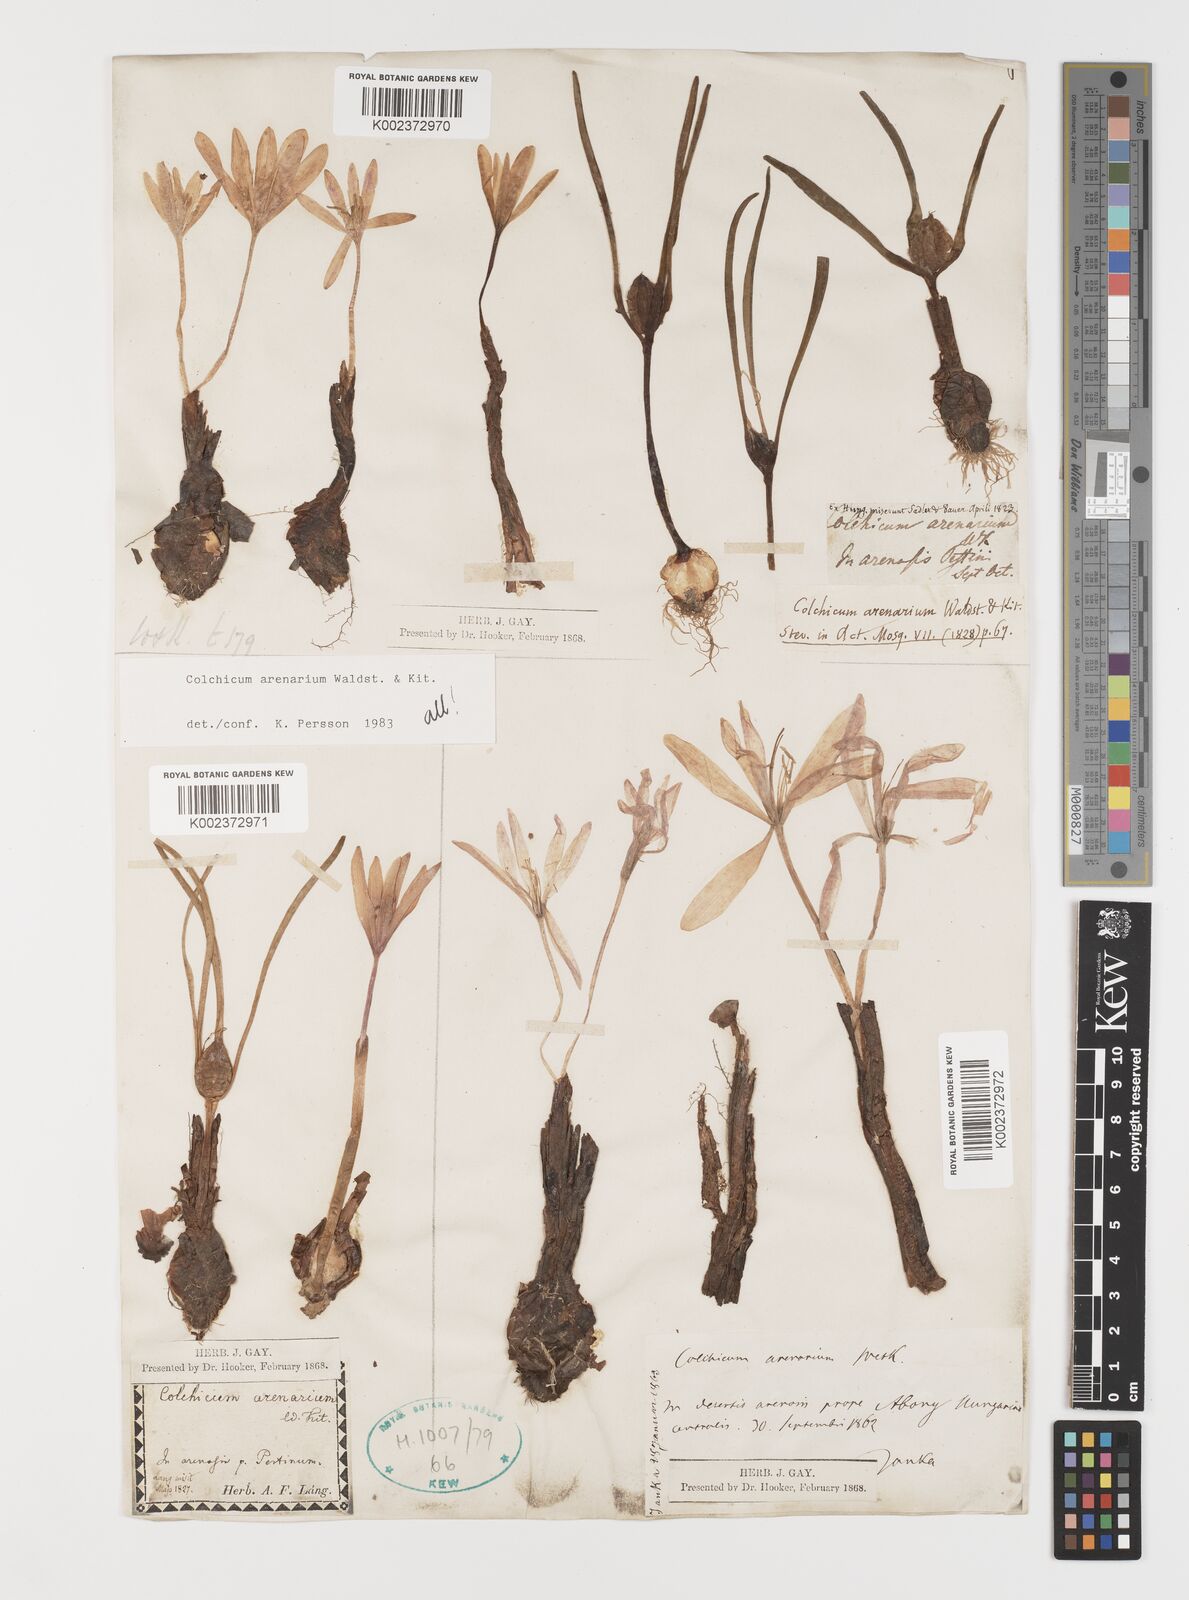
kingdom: Plantae
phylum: Tracheophyta
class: Liliopsida
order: Liliales
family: Colchicaceae
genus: Colchicum
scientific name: Colchicum arenarium
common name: Sand saffron
